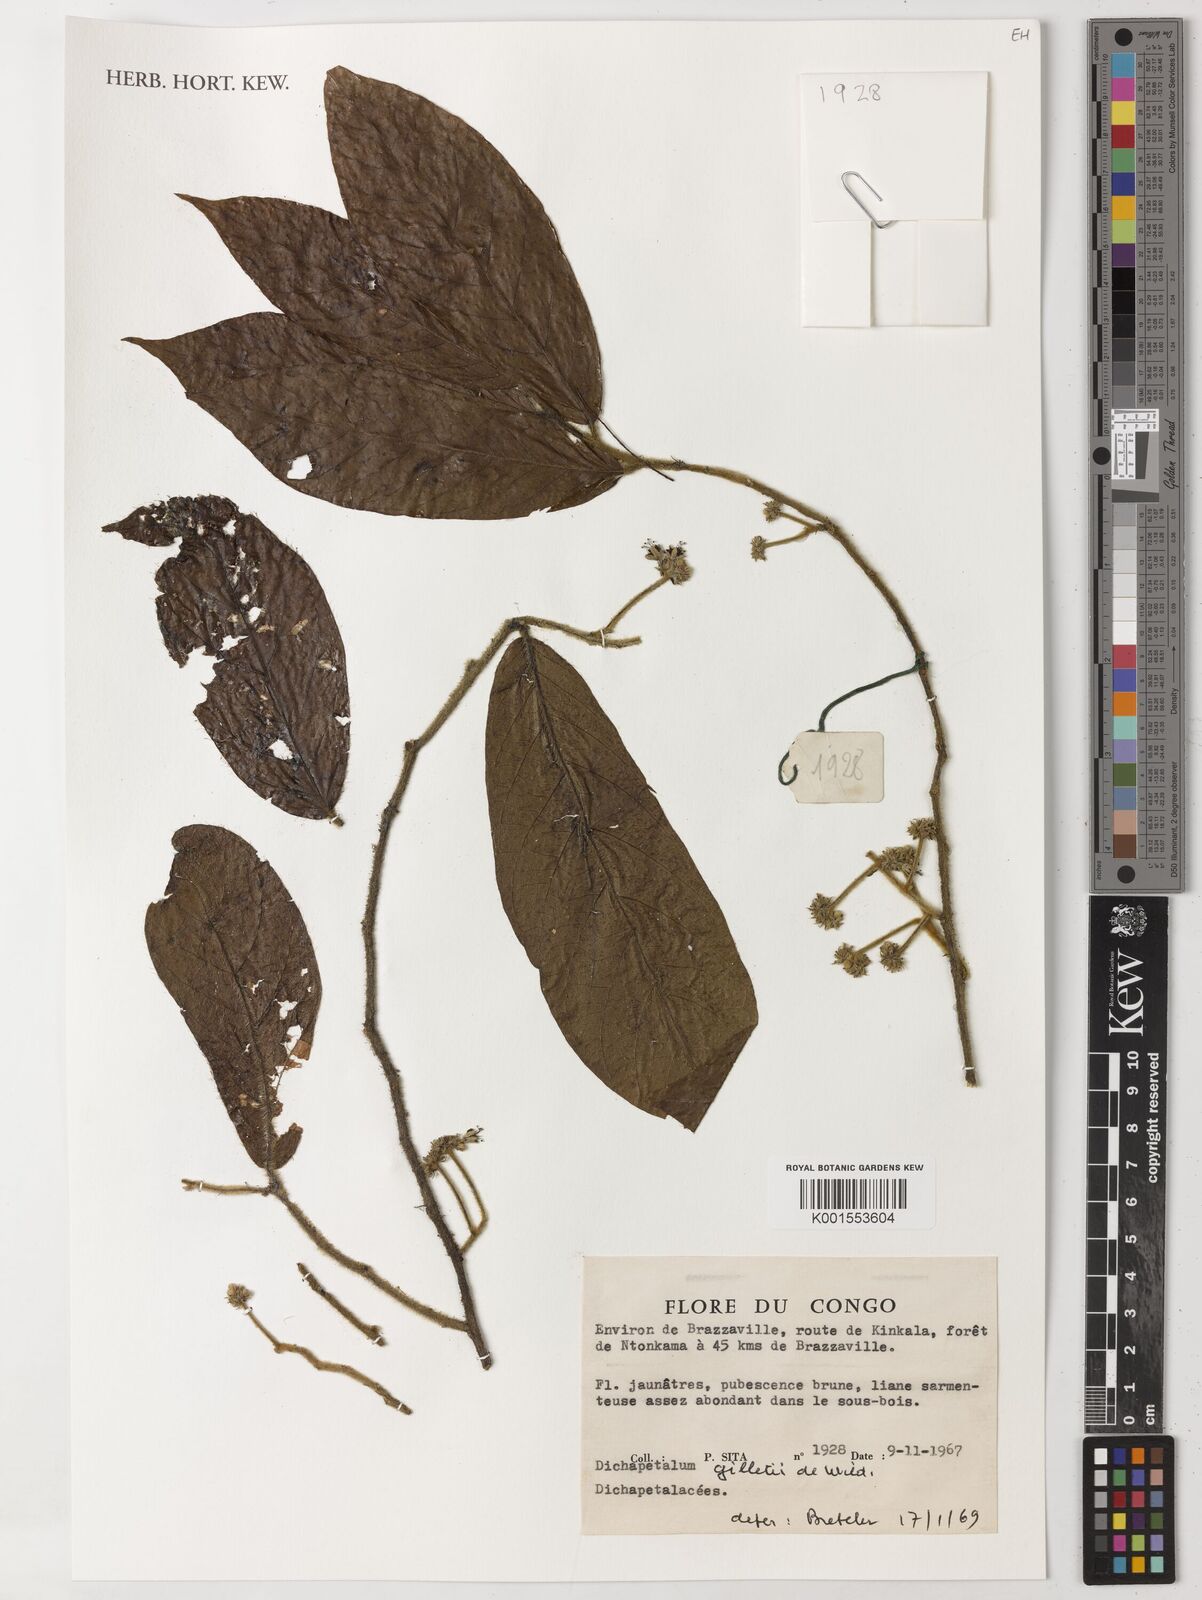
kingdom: Plantae
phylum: Tracheophyta
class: Magnoliopsida
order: Malpighiales
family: Dichapetalaceae
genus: Dichapetalum
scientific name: Dichapetalum gilletii
